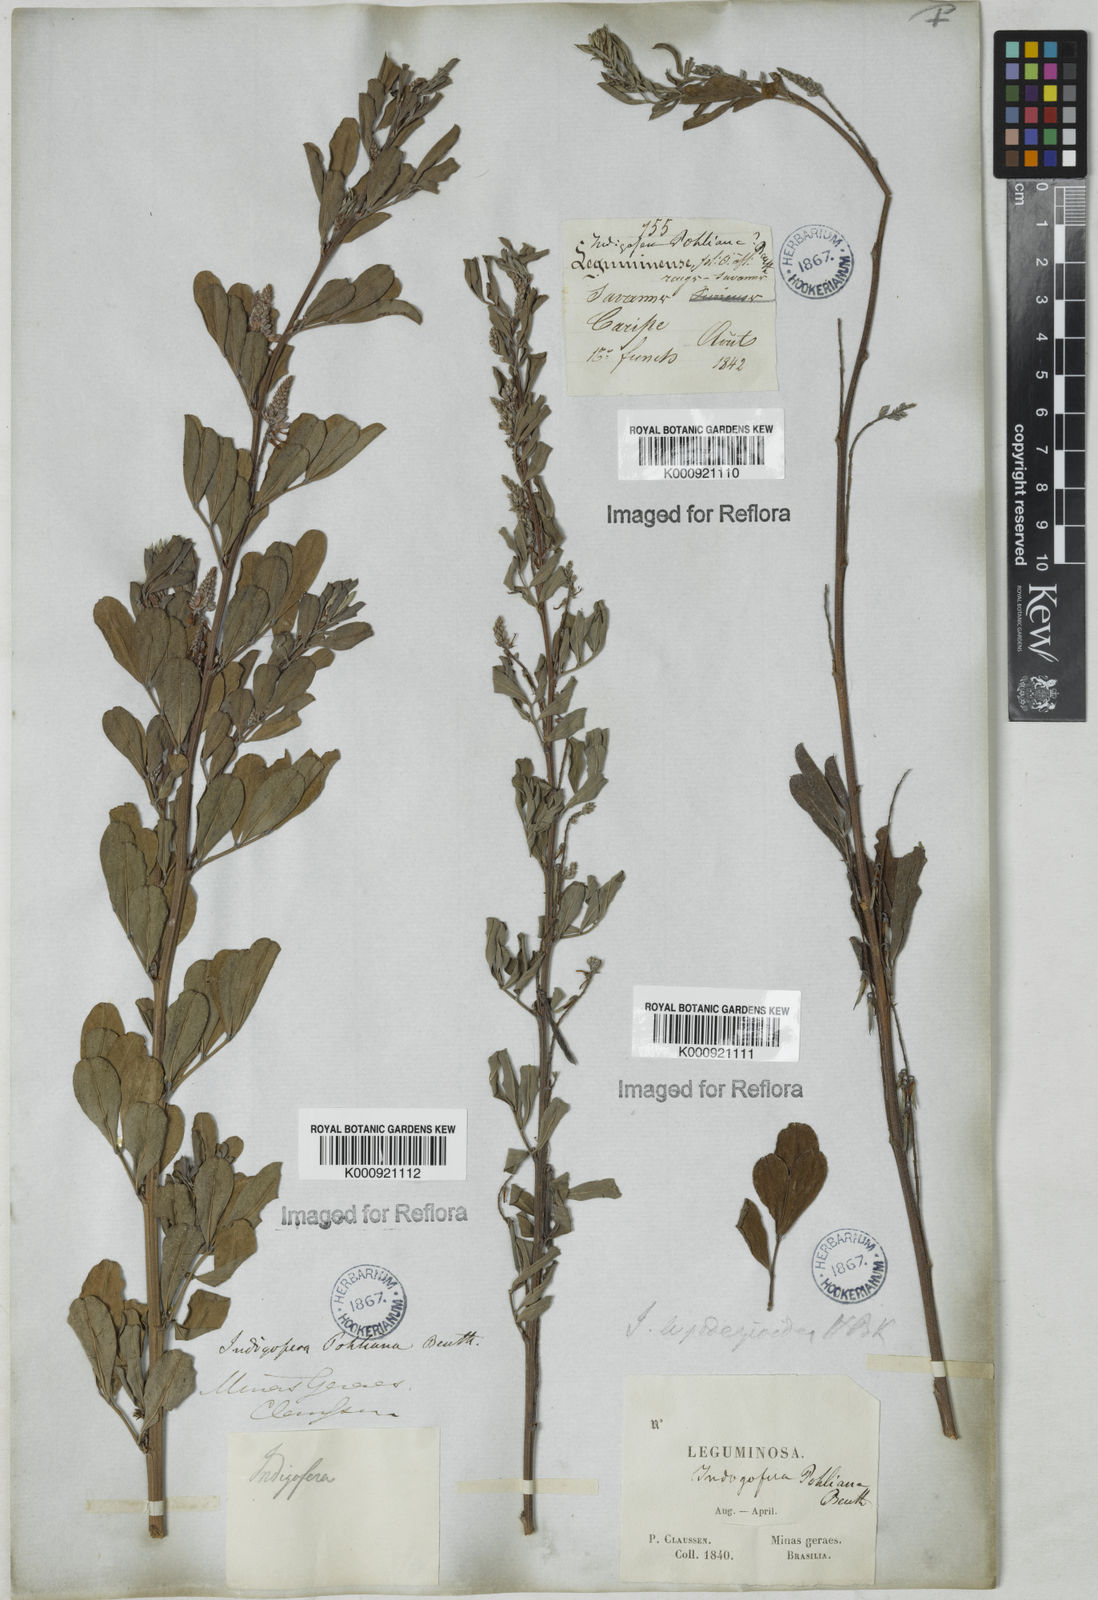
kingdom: Plantae
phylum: Tracheophyta
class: Magnoliopsida
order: Fabales
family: Fabaceae
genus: Indigofera
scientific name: Indigofera lespedezioides
